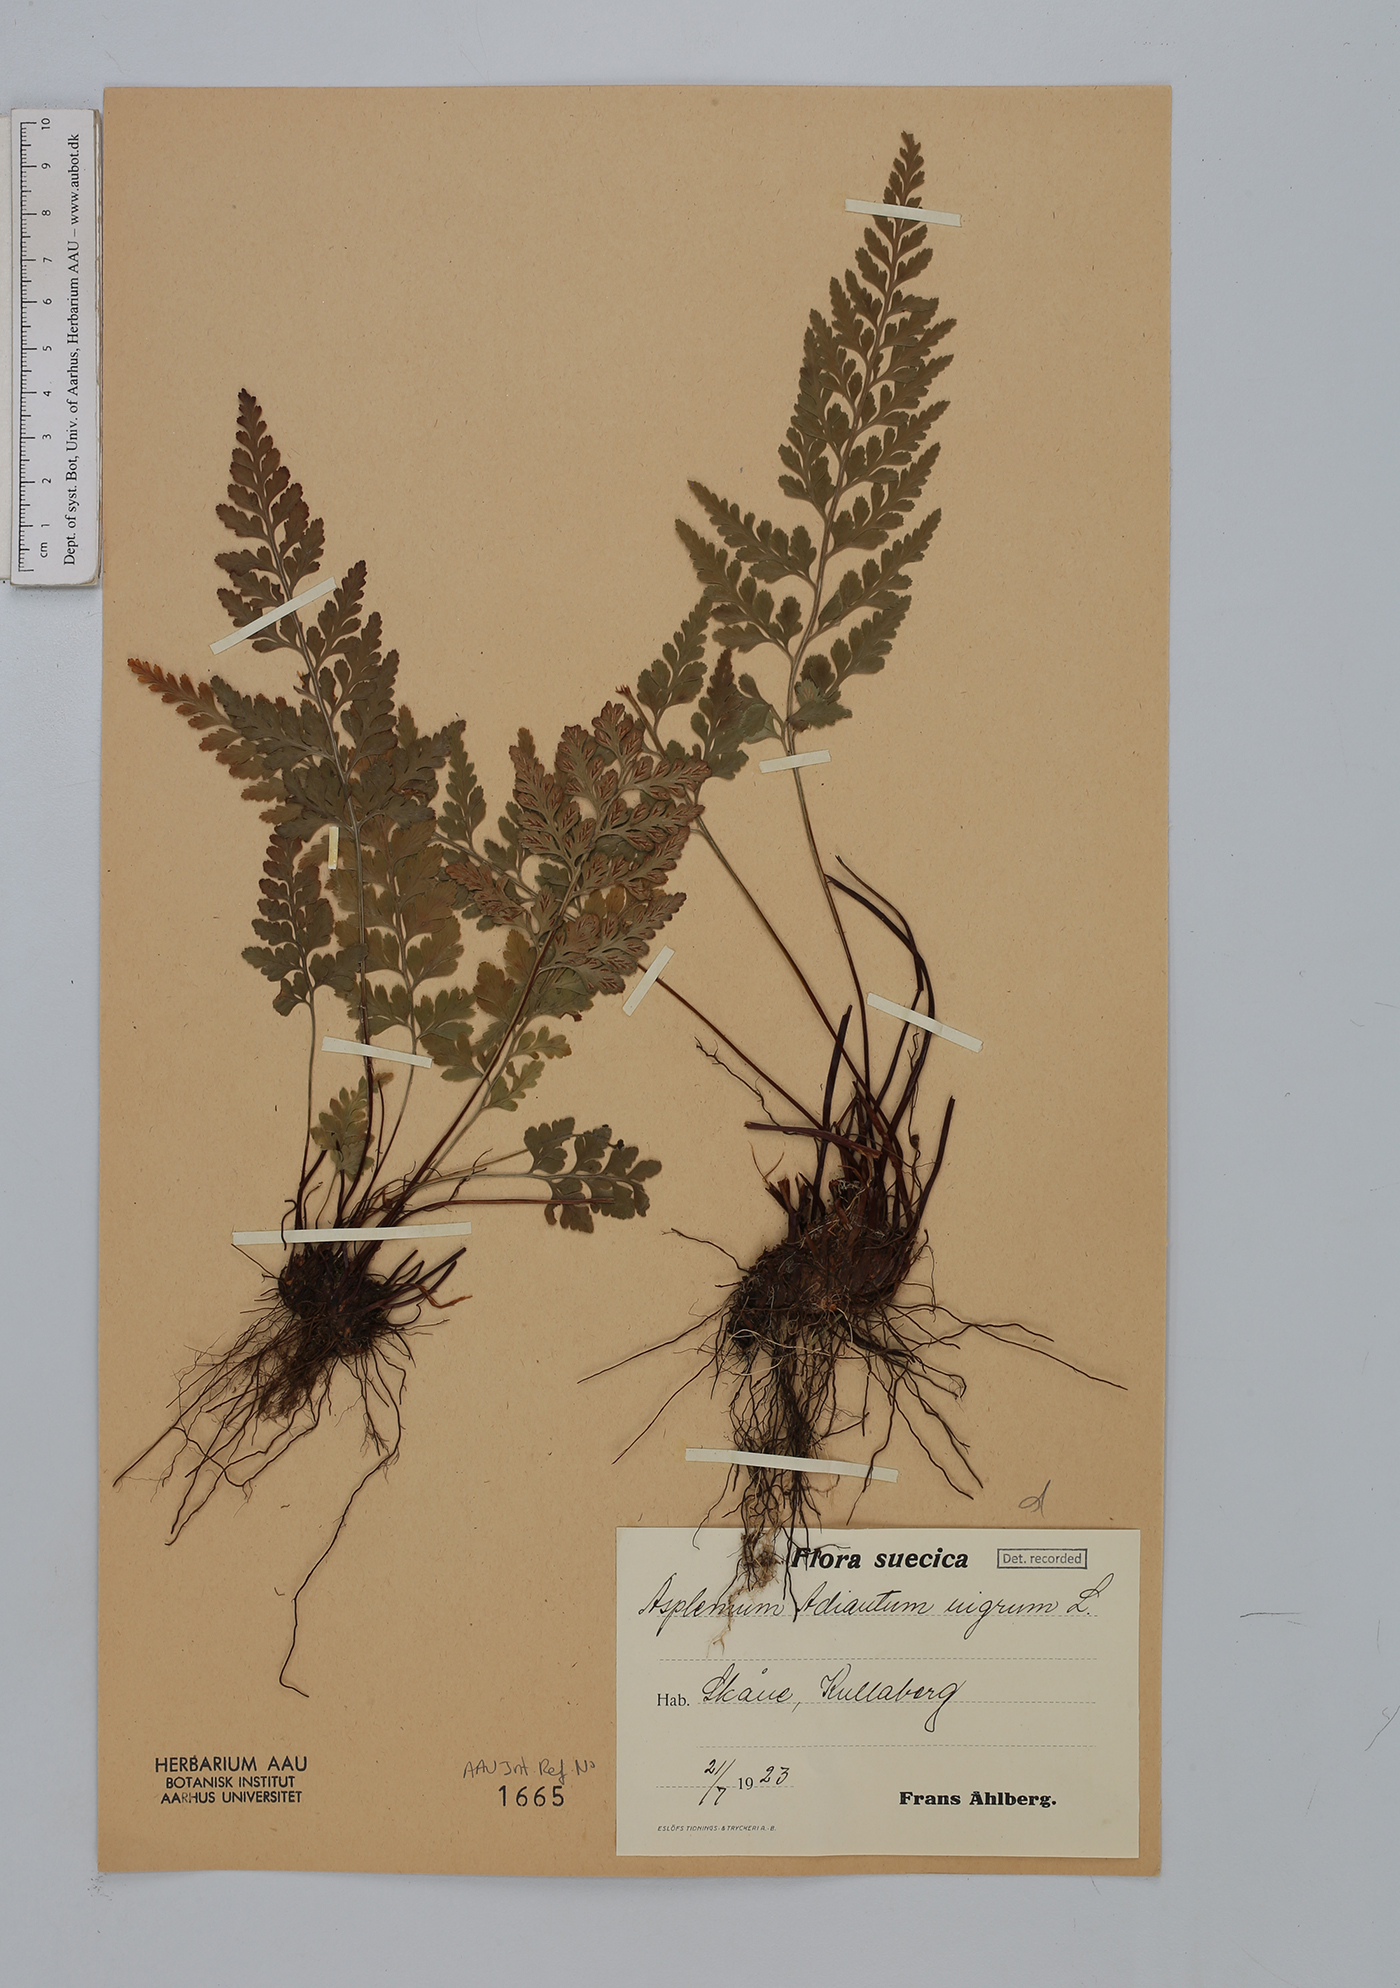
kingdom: Plantae
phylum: Tracheophyta
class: Polypodiopsida
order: Polypodiales
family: Aspleniaceae
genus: Asplenium
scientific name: Asplenium adiantum-nigrum
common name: Black spleenwort
